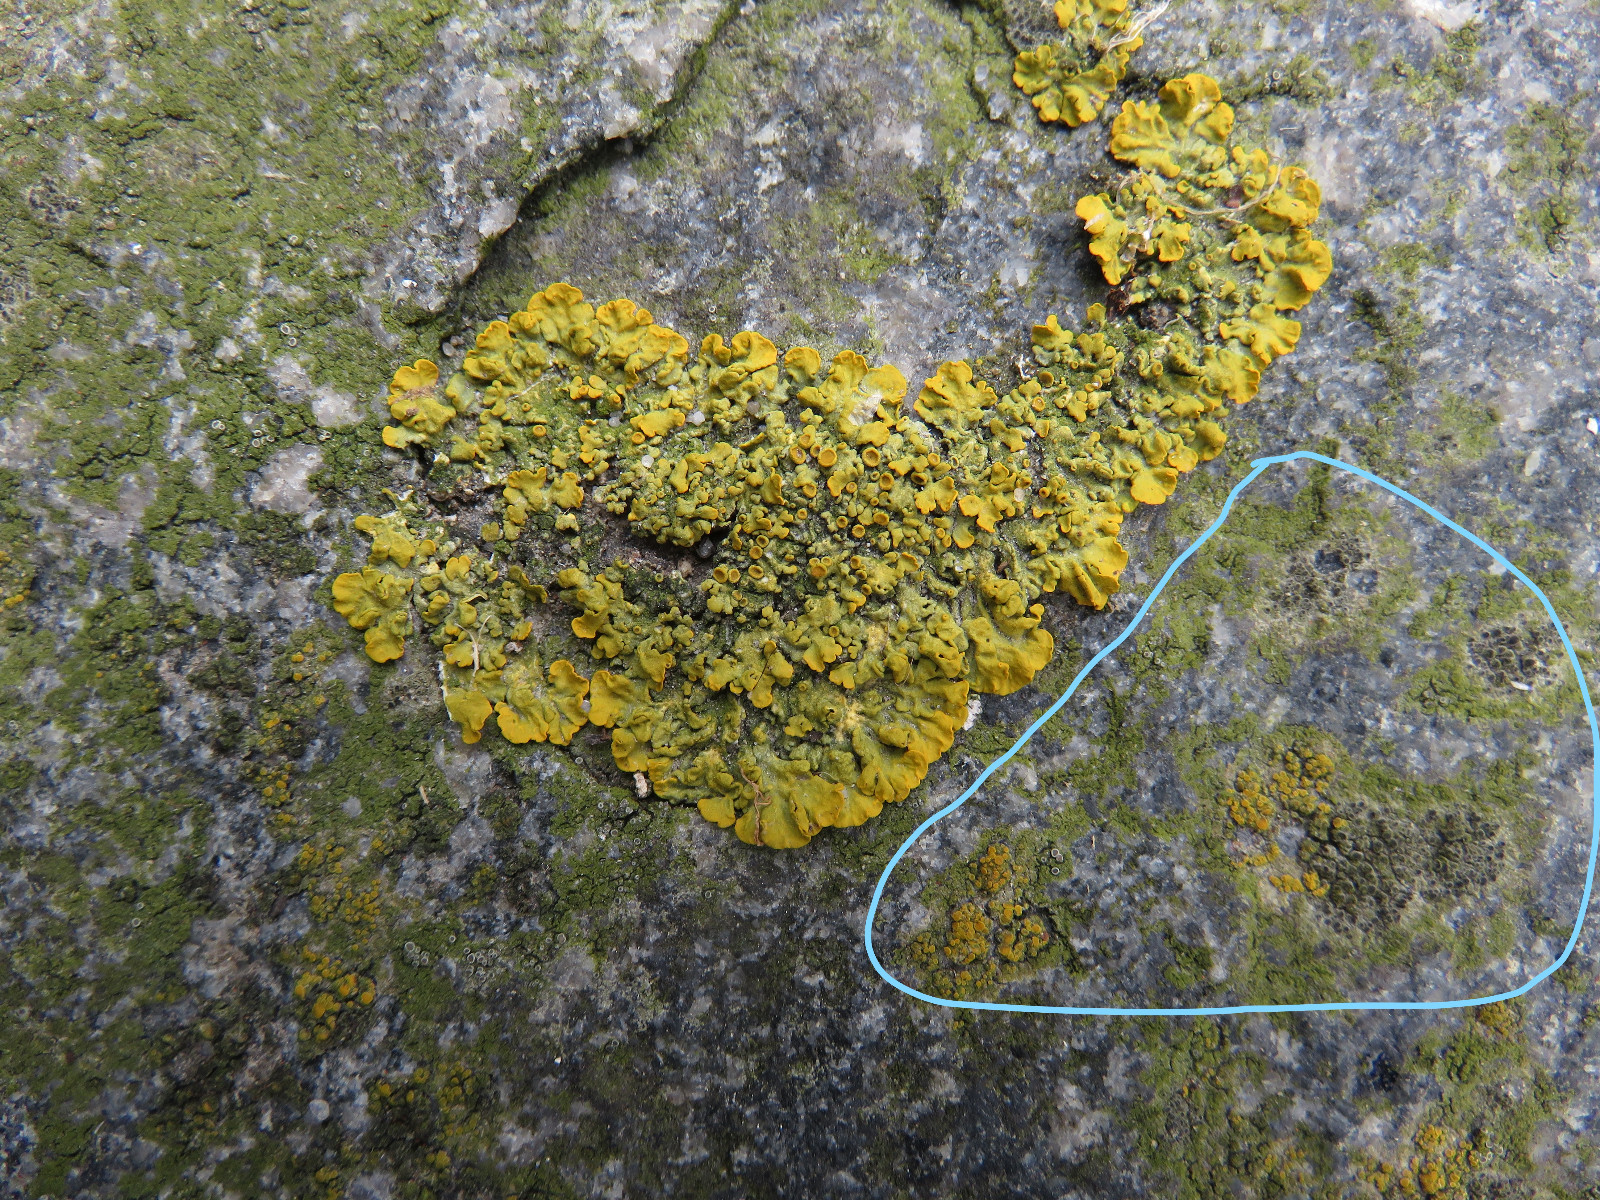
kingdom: Fungi
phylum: Ascomycota
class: Lecanoromycetes
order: Caliciales
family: Physciaceae
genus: Rinodina
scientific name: Rinodina oleae
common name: kyst-knaplav
